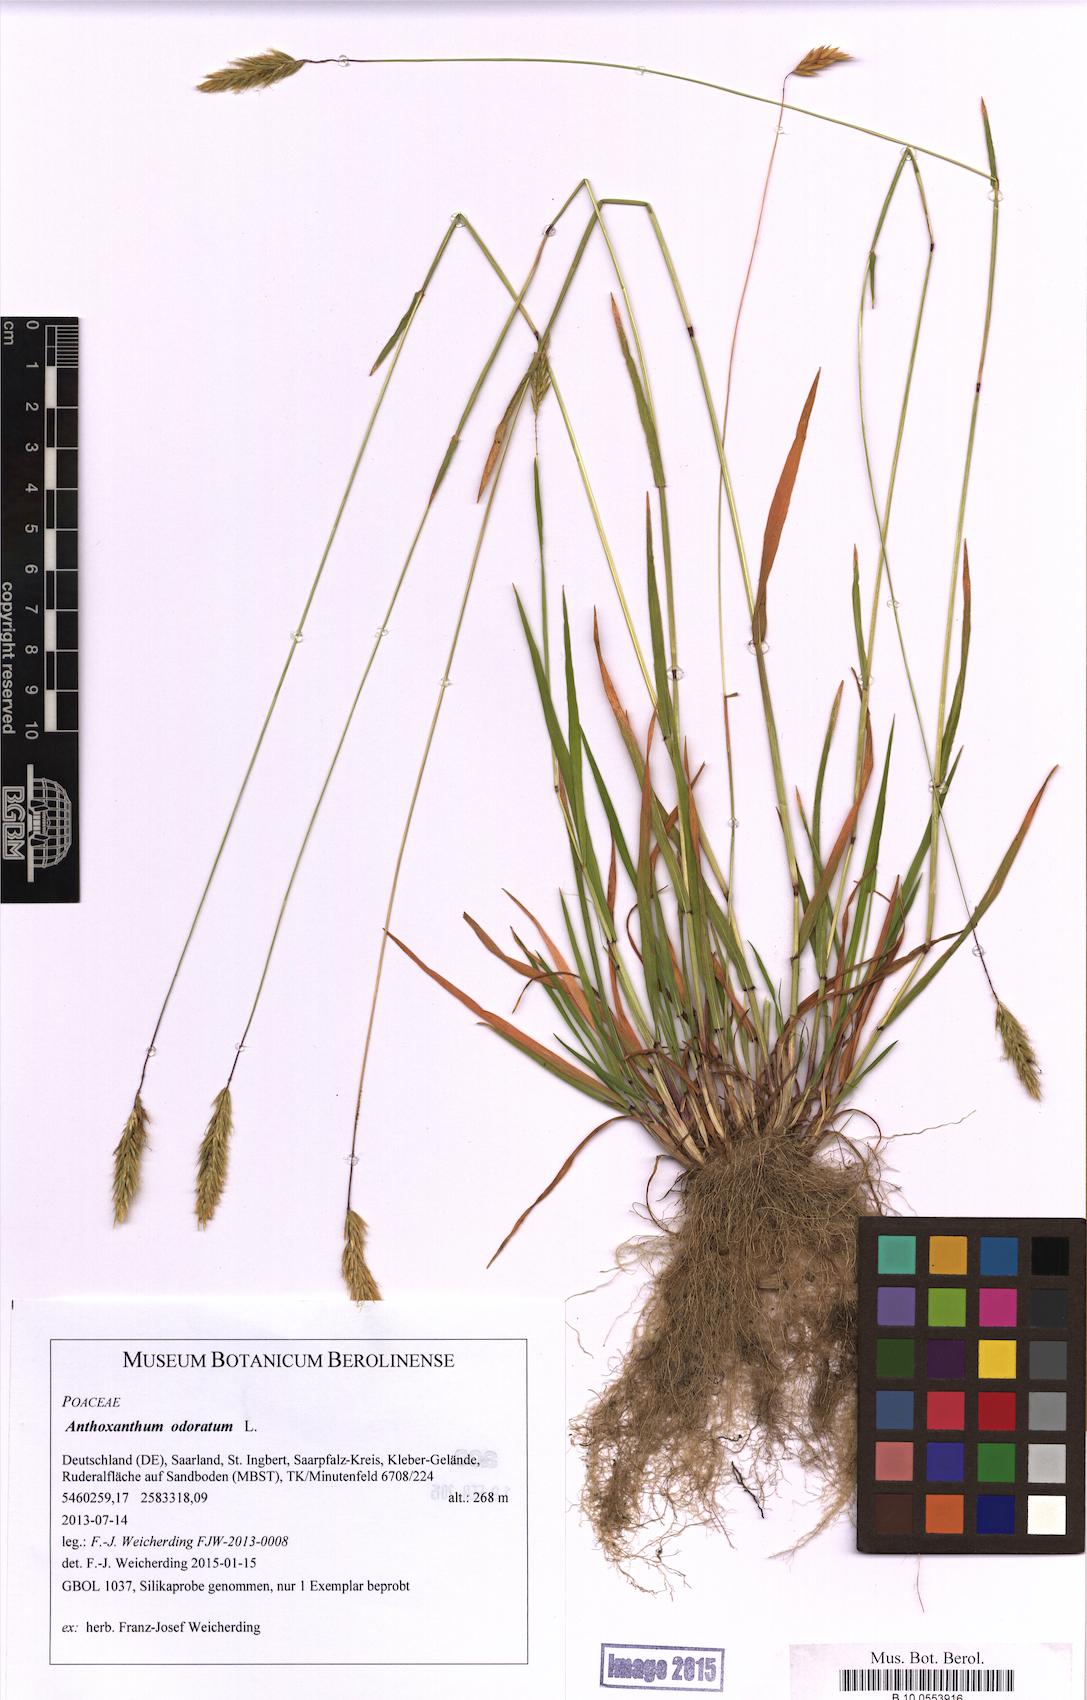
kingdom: Plantae
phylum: Tracheophyta
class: Liliopsida
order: Poales
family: Poaceae
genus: Anthoxanthum
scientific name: Anthoxanthum odoratum
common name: Sweet vernalgrass
